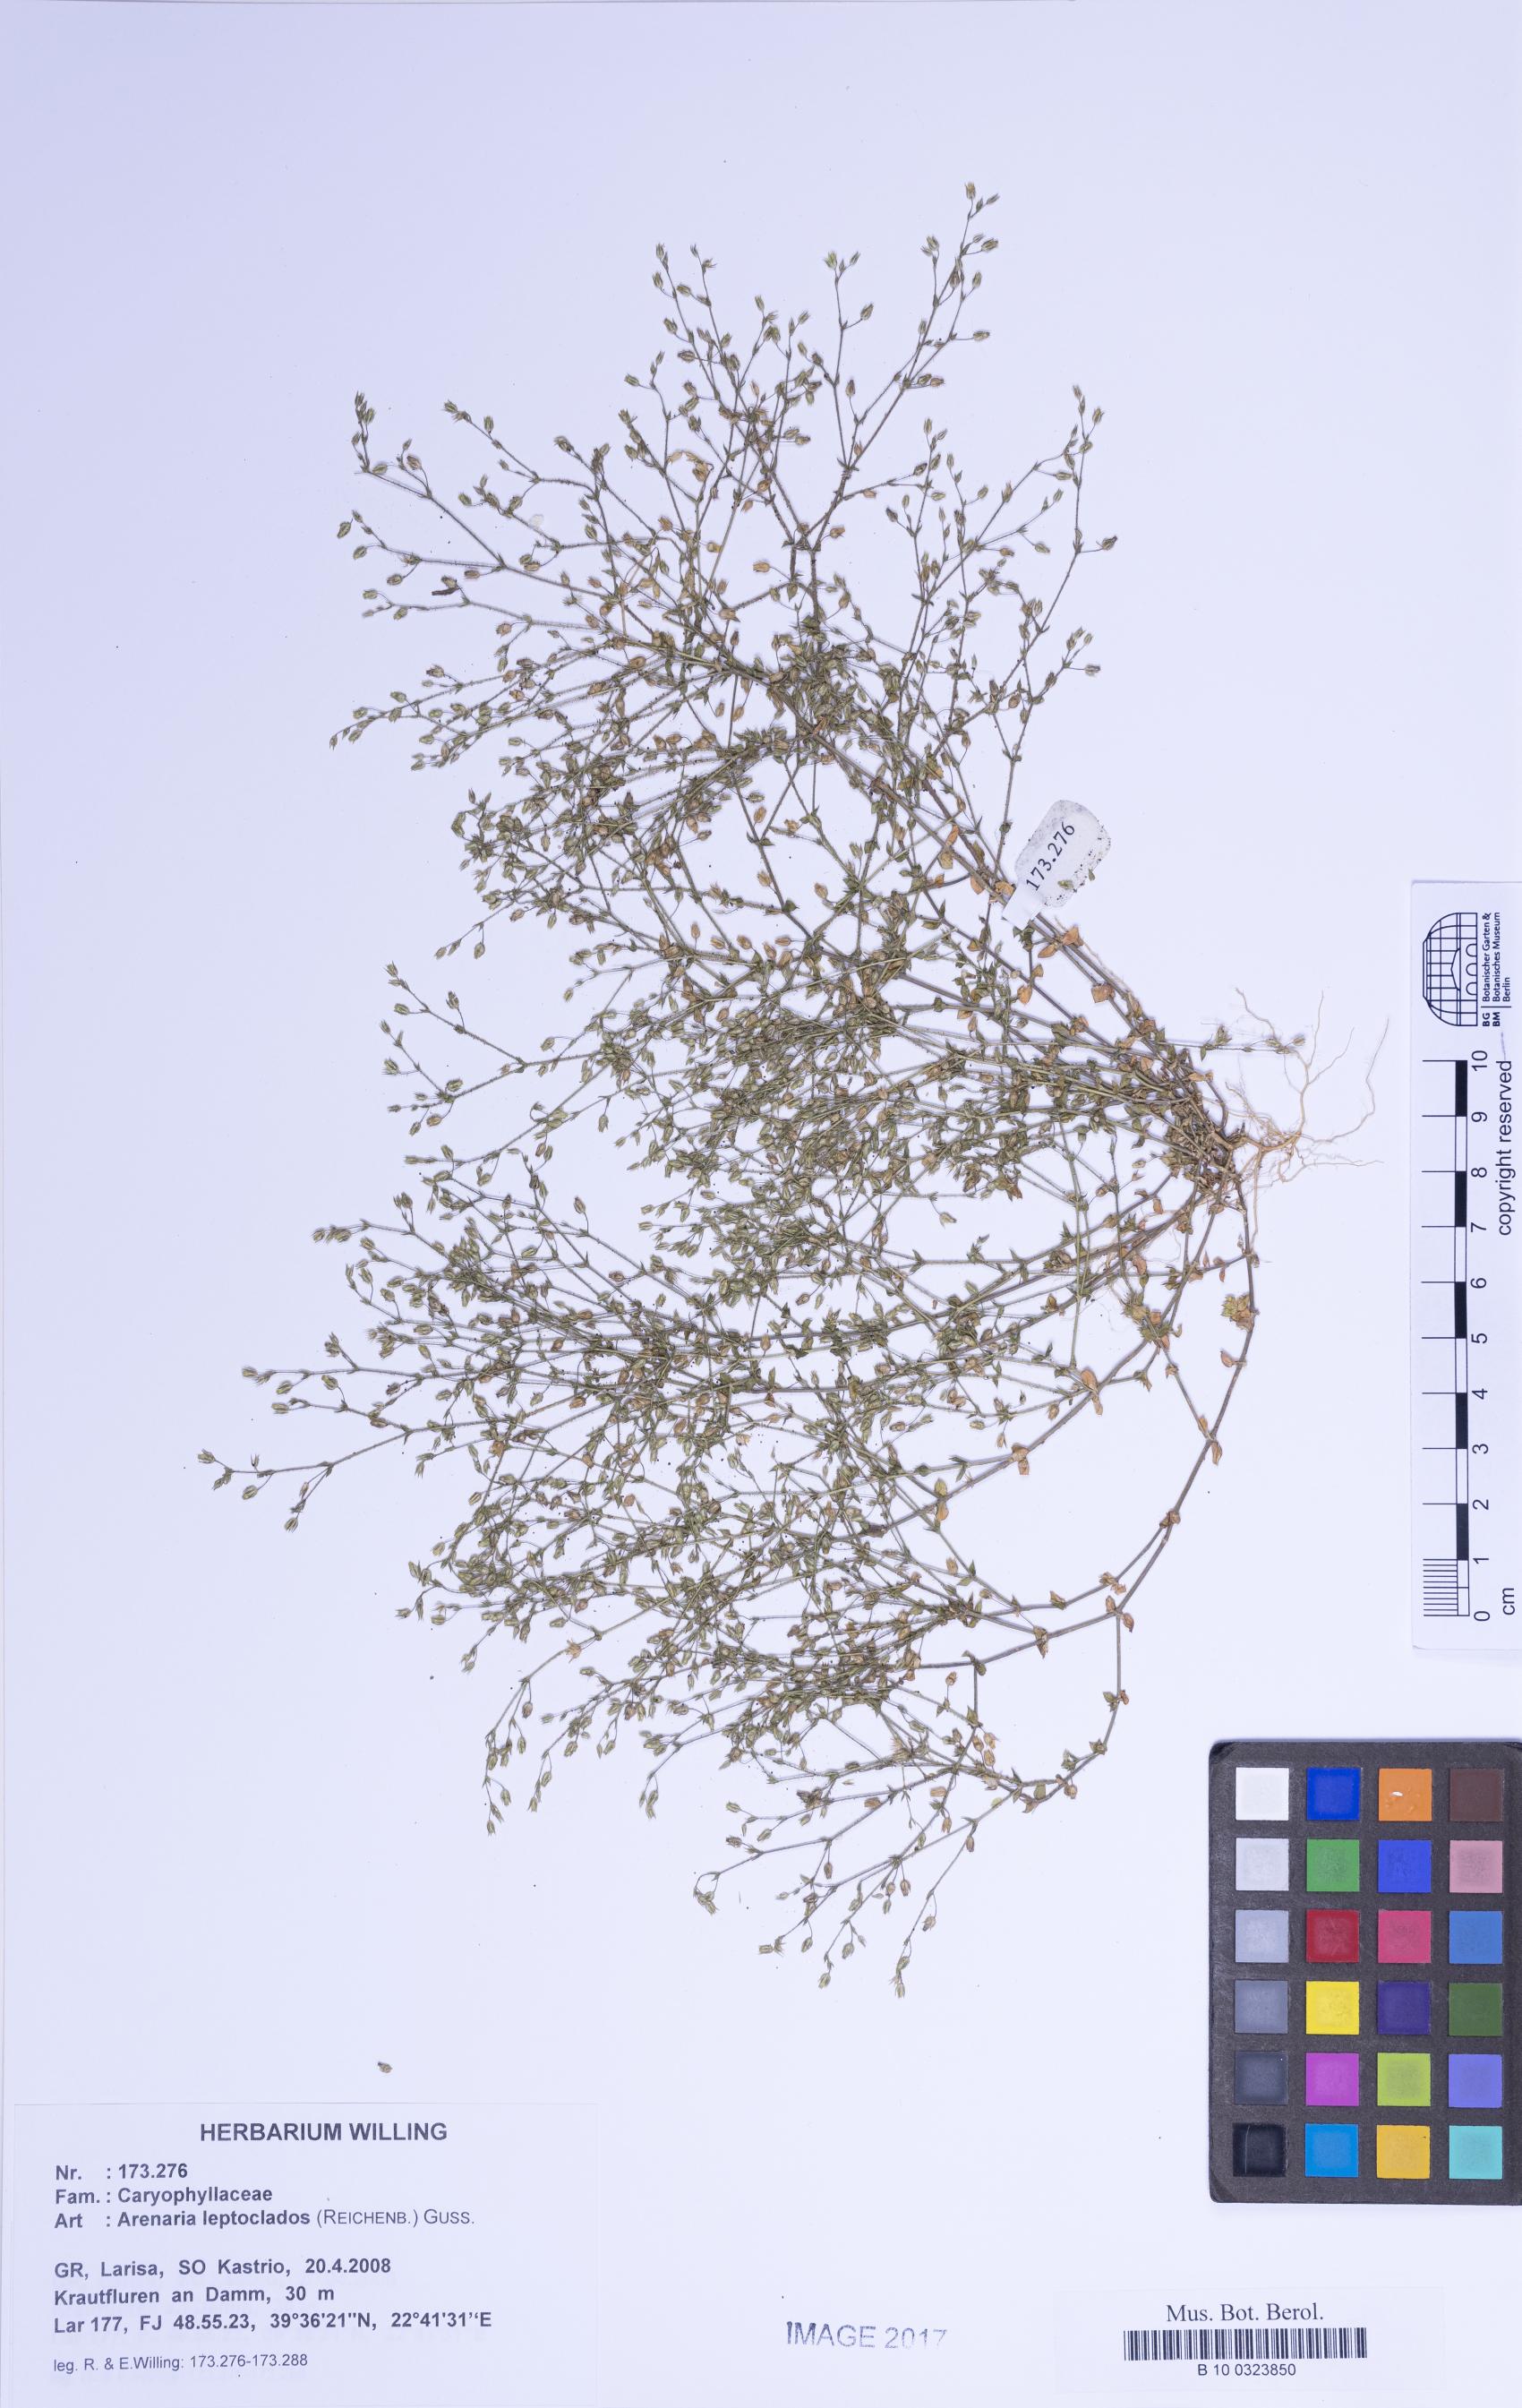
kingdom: Plantae
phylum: Tracheophyta
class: Magnoliopsida
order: Caryophyllales
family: Caryophyllaceae
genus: Arenaria
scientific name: Arenaria leptoclados
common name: Thyme-leaved sandwort
